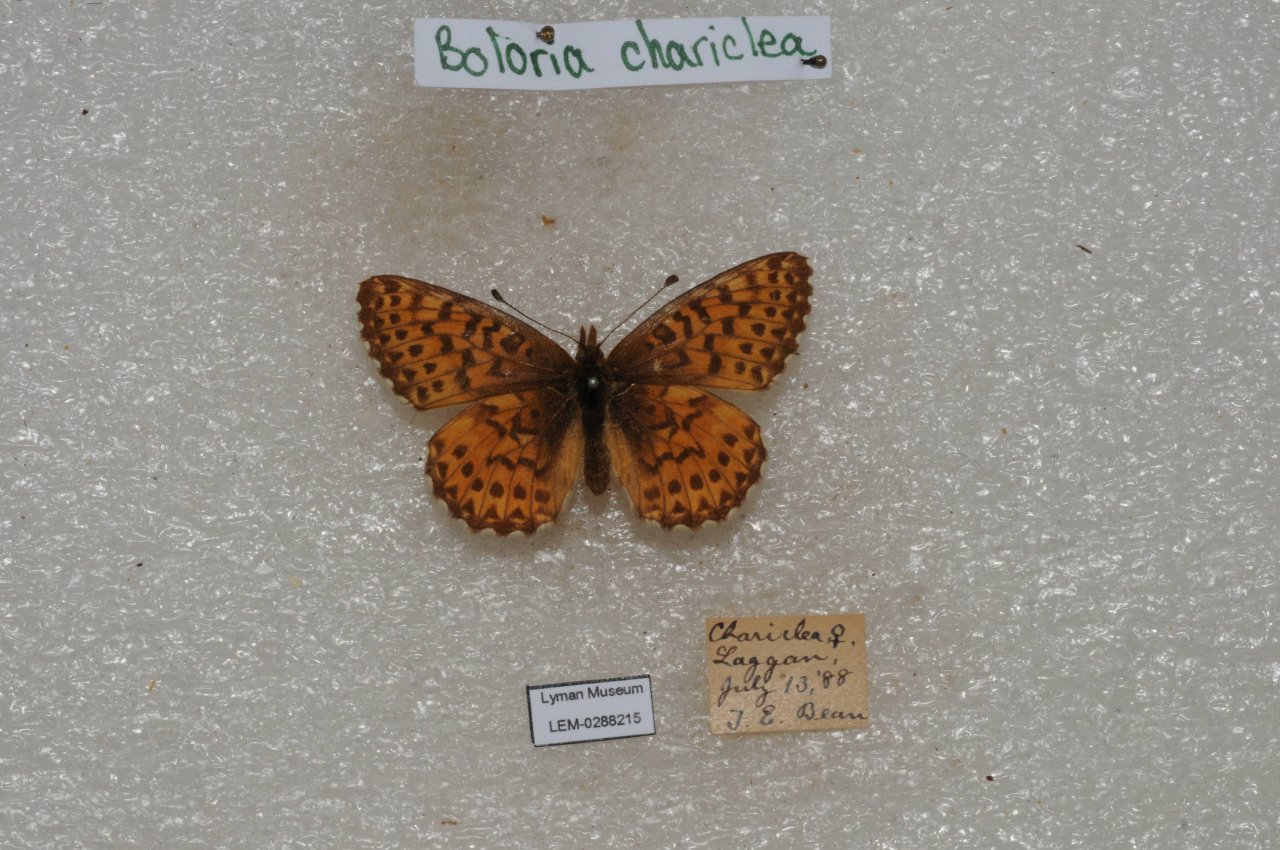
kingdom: Animalia
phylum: Arthropoda
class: Insecta
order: Lepidoptera
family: Nymphalidae
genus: Boloria
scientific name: Boloria chariclea
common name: Arctic Fritillary
